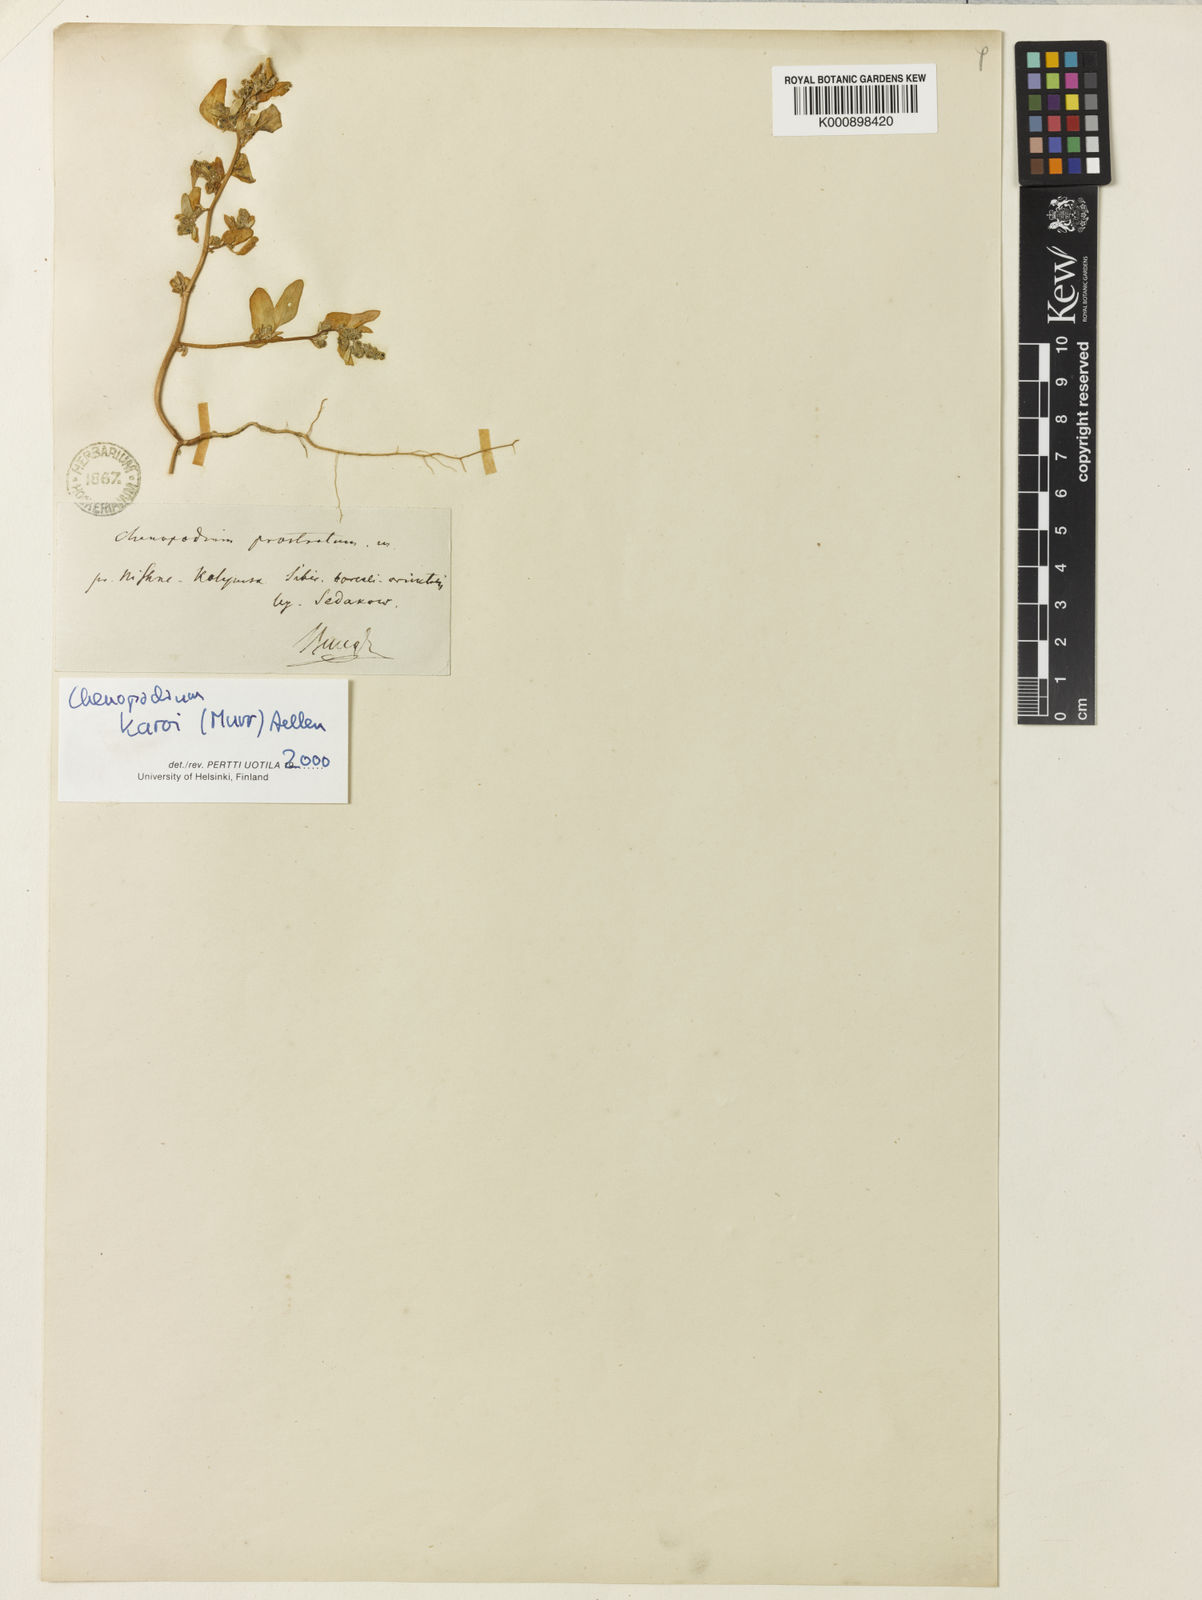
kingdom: Plantae
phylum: Tracheophyta
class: Magnoliopsida
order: Caryophyllales
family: Amaranthaceae
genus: Chenopodium
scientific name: Chenopodium karoi
